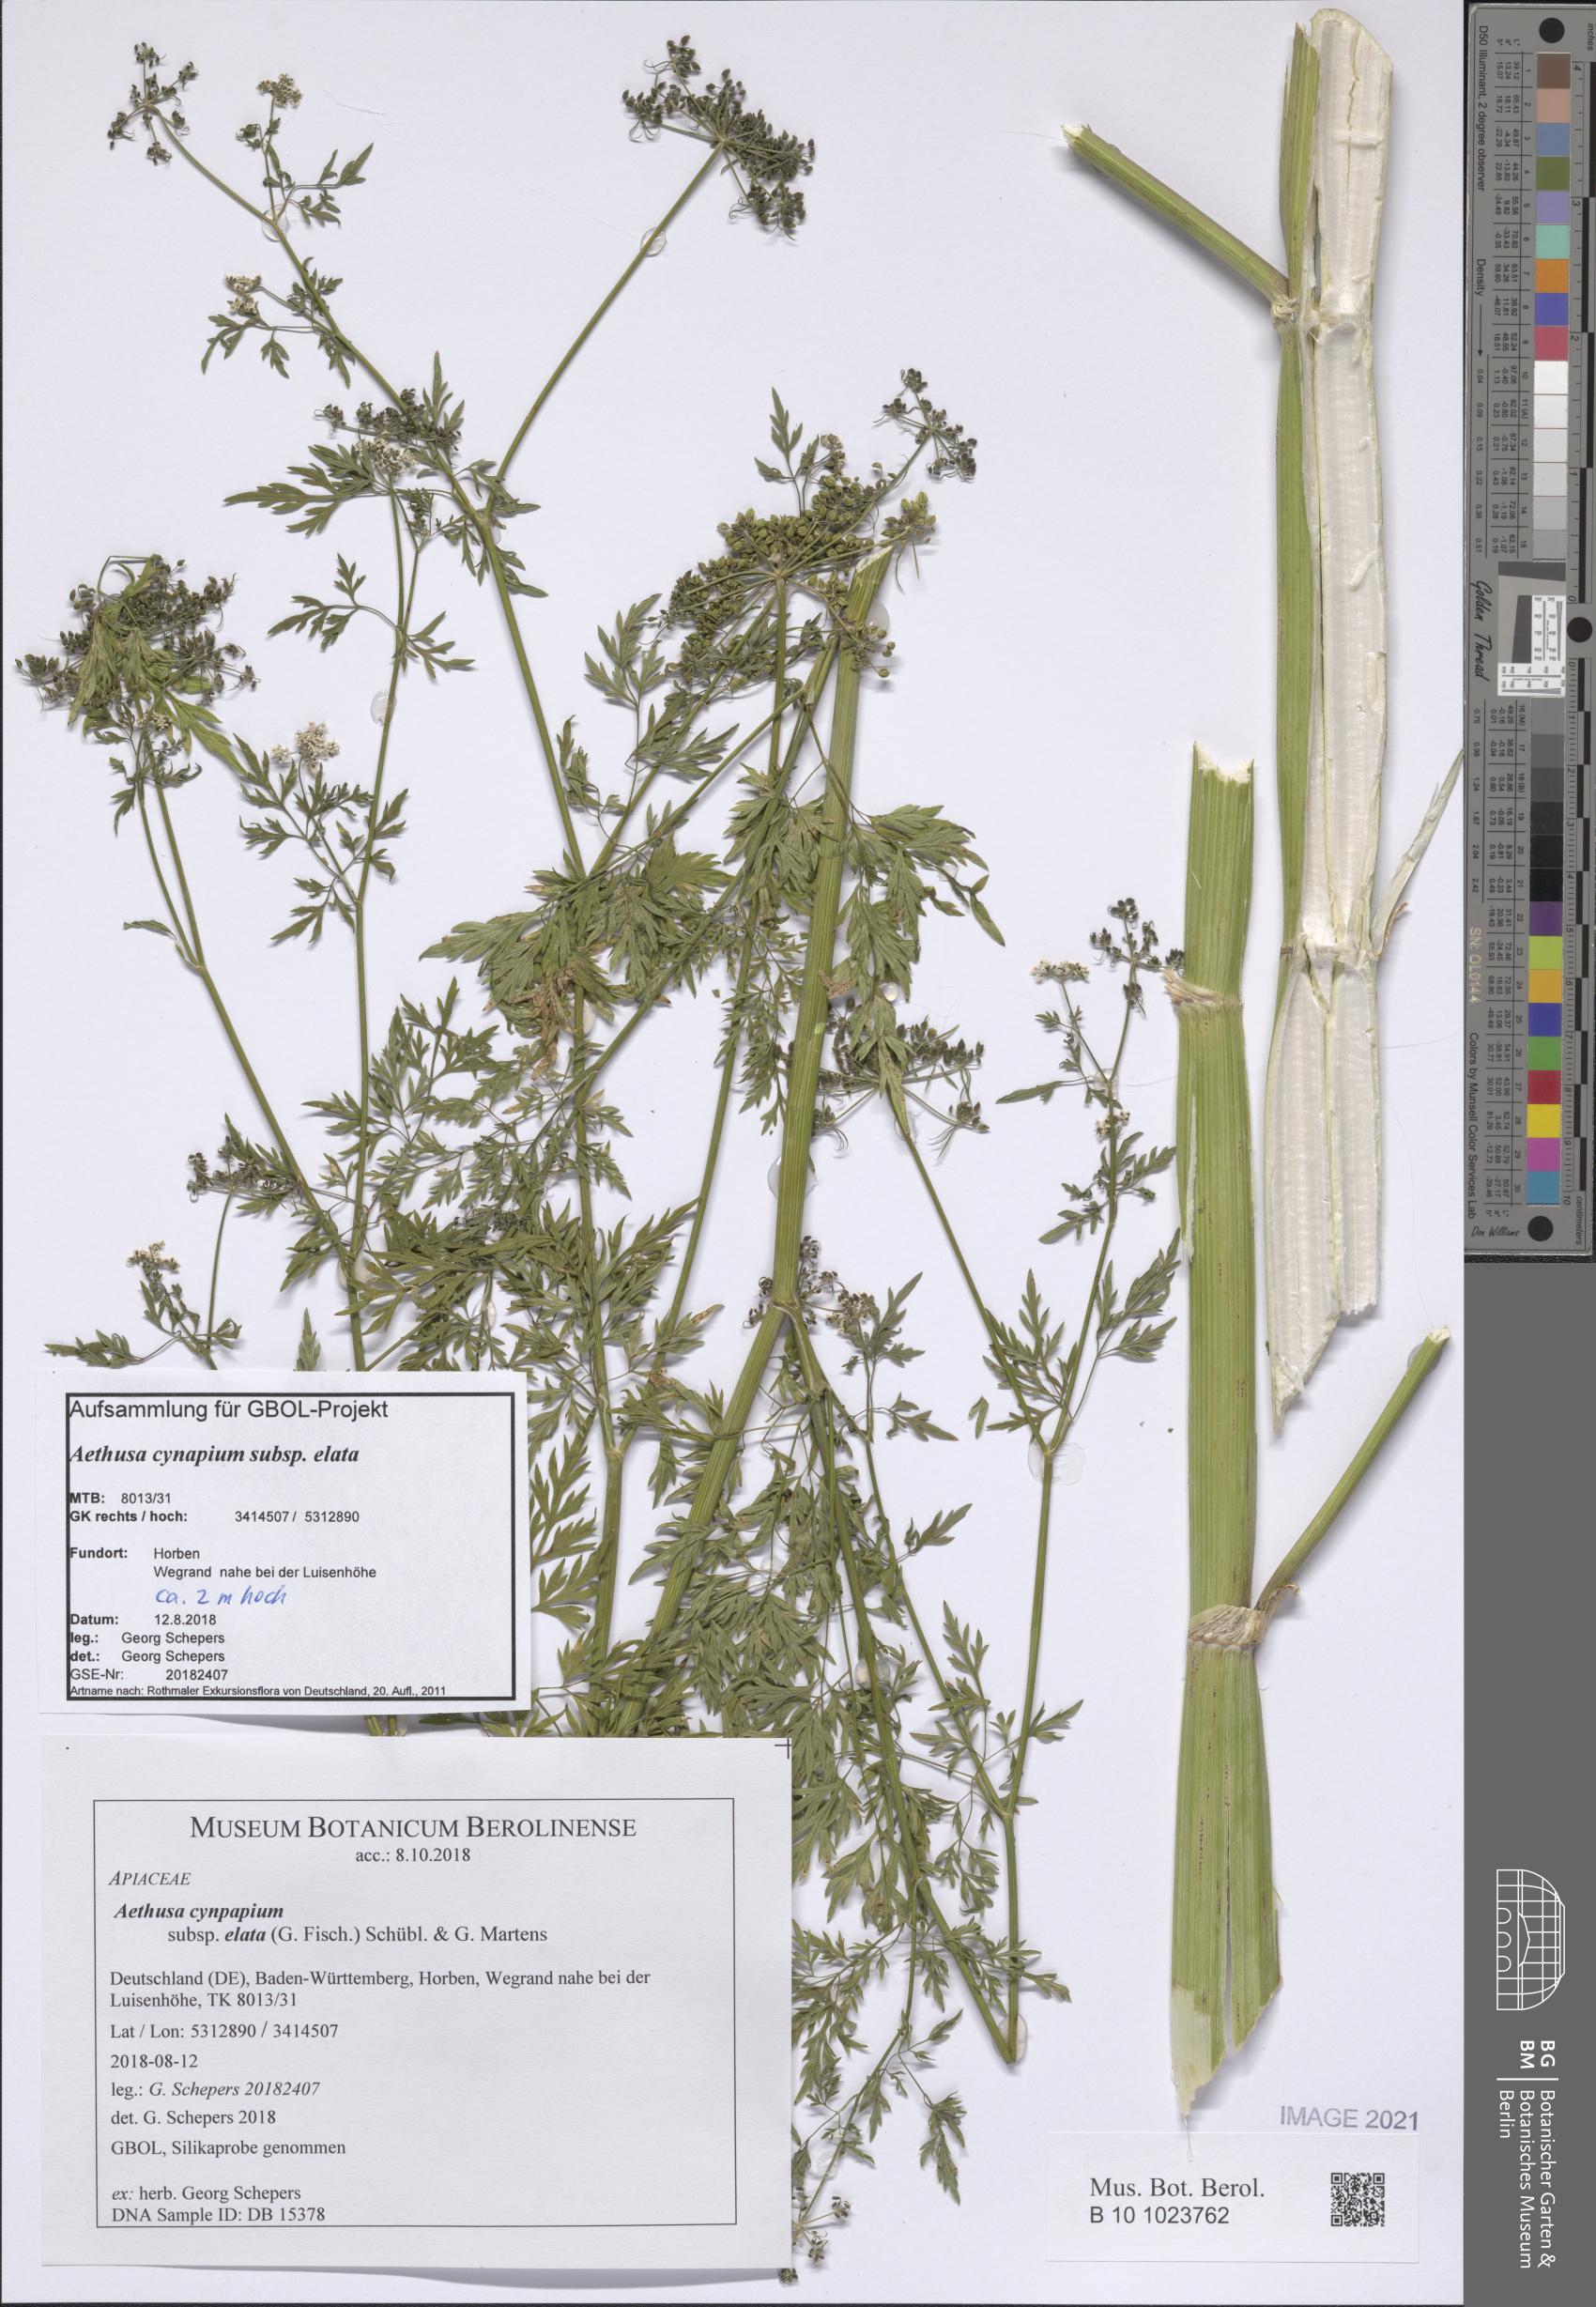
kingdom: Plantae
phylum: Tracheophyta
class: Magnoliopsida
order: Apiales
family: Apiaceae
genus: Aethusa
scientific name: Aethusa cynapium
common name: Fool's parsley
